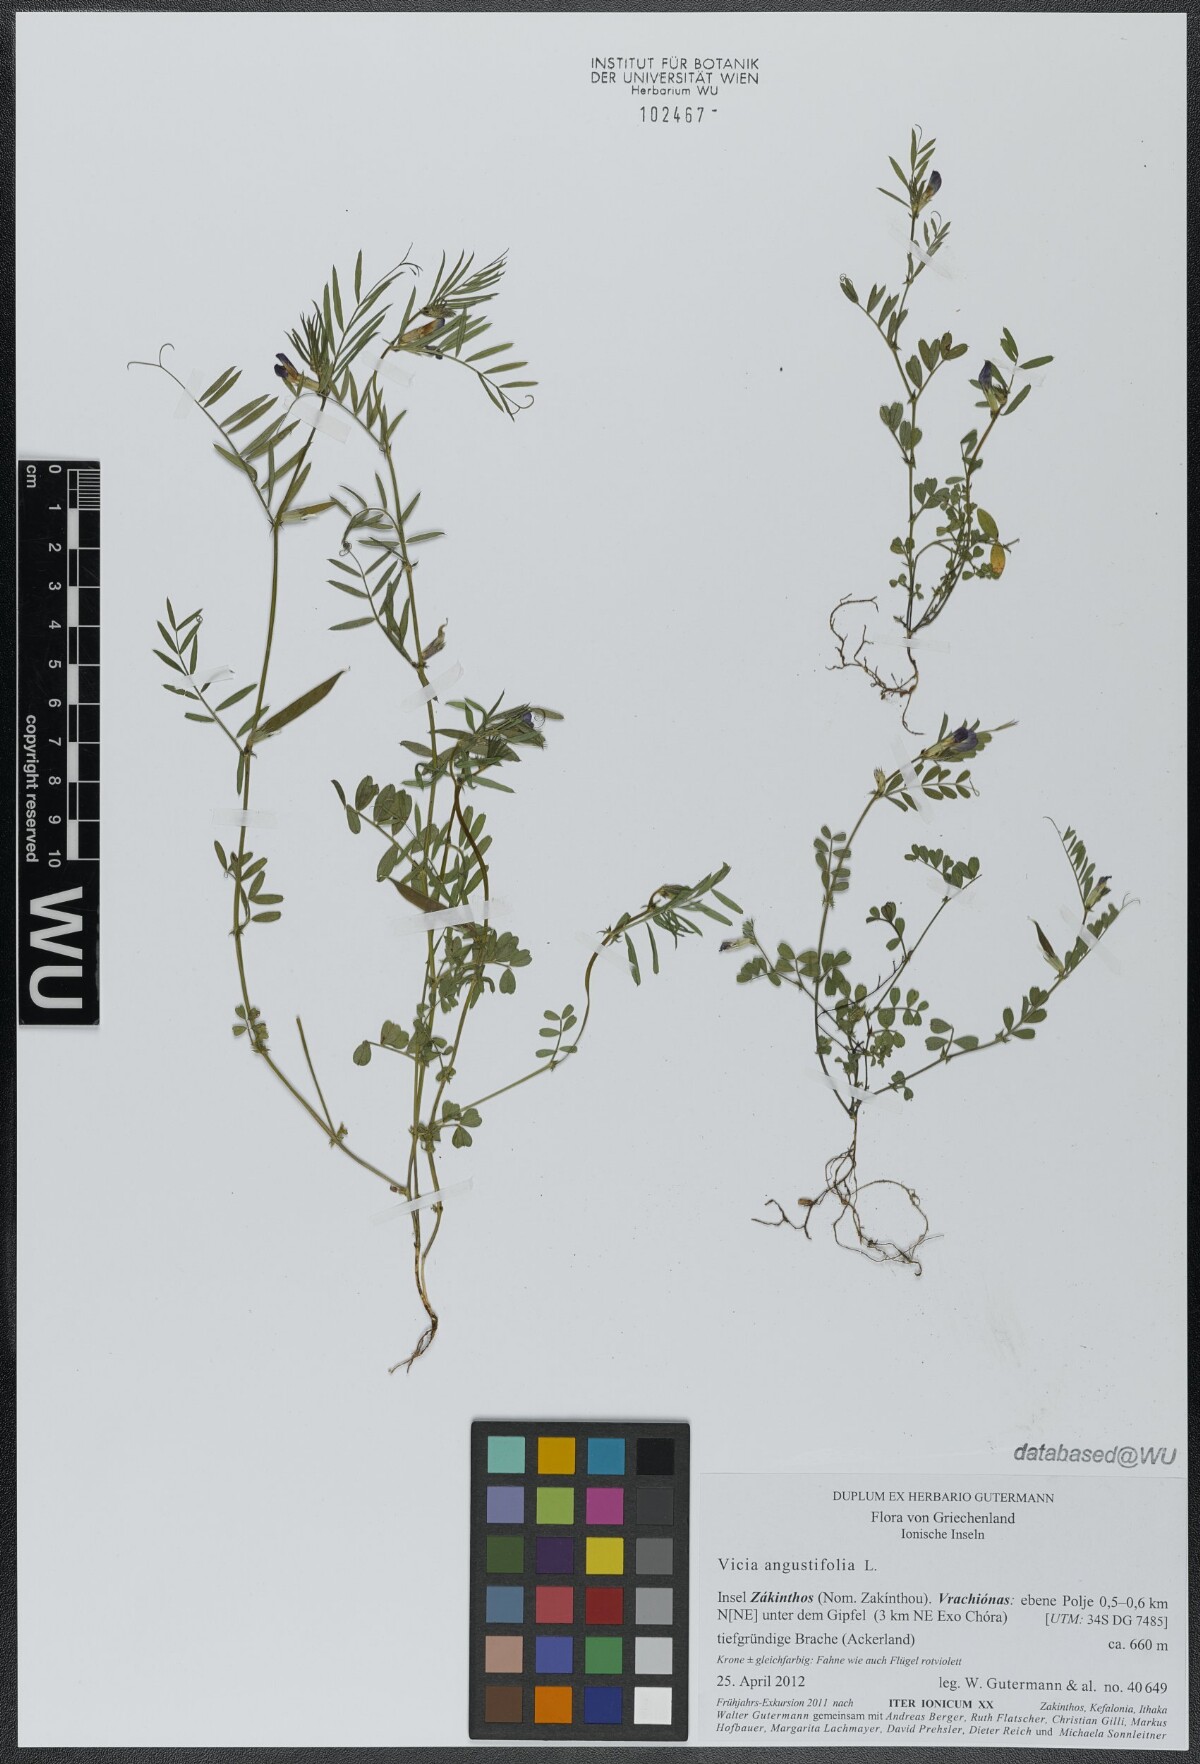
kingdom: Plantae
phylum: Tracheophyta
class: Magnoliopsida
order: Fabales
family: Fabaceae
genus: Vicia
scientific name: Vicia sativa
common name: Garden vetch
